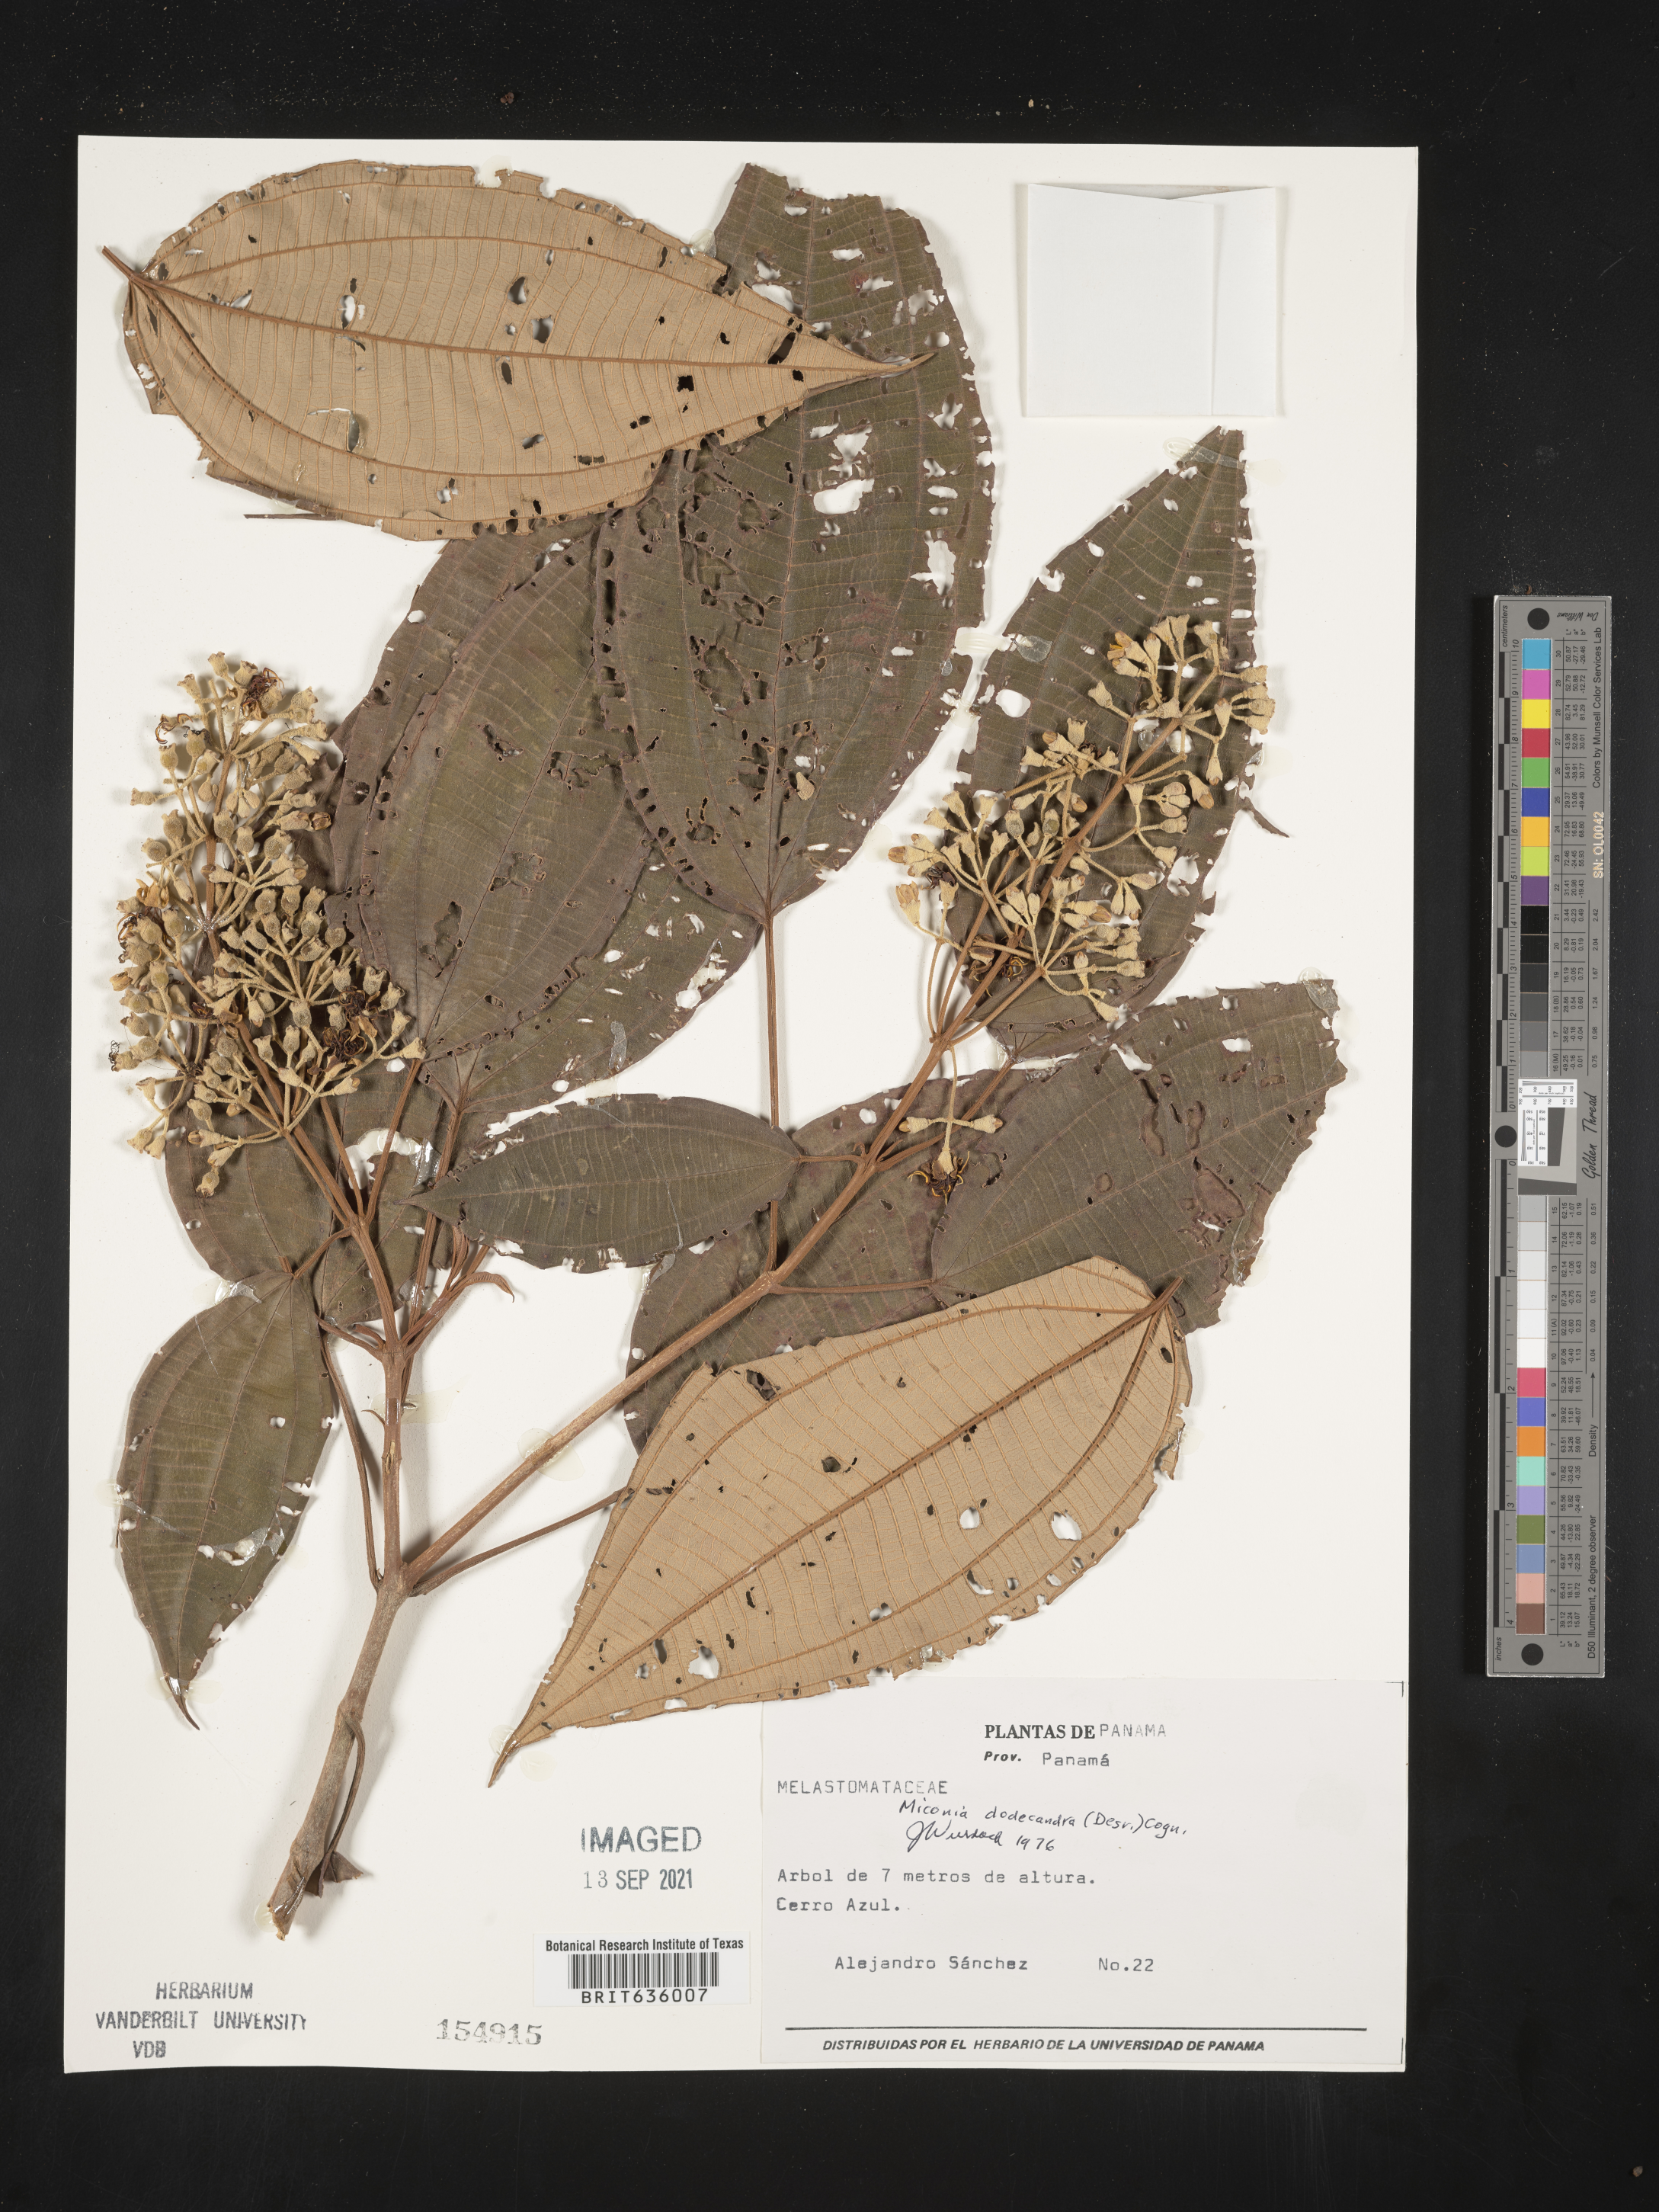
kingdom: Plantae
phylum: Tracheophyta
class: Magnoliopsida
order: Myrtales
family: Melastomataceae
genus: Miconia
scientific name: Miconia
